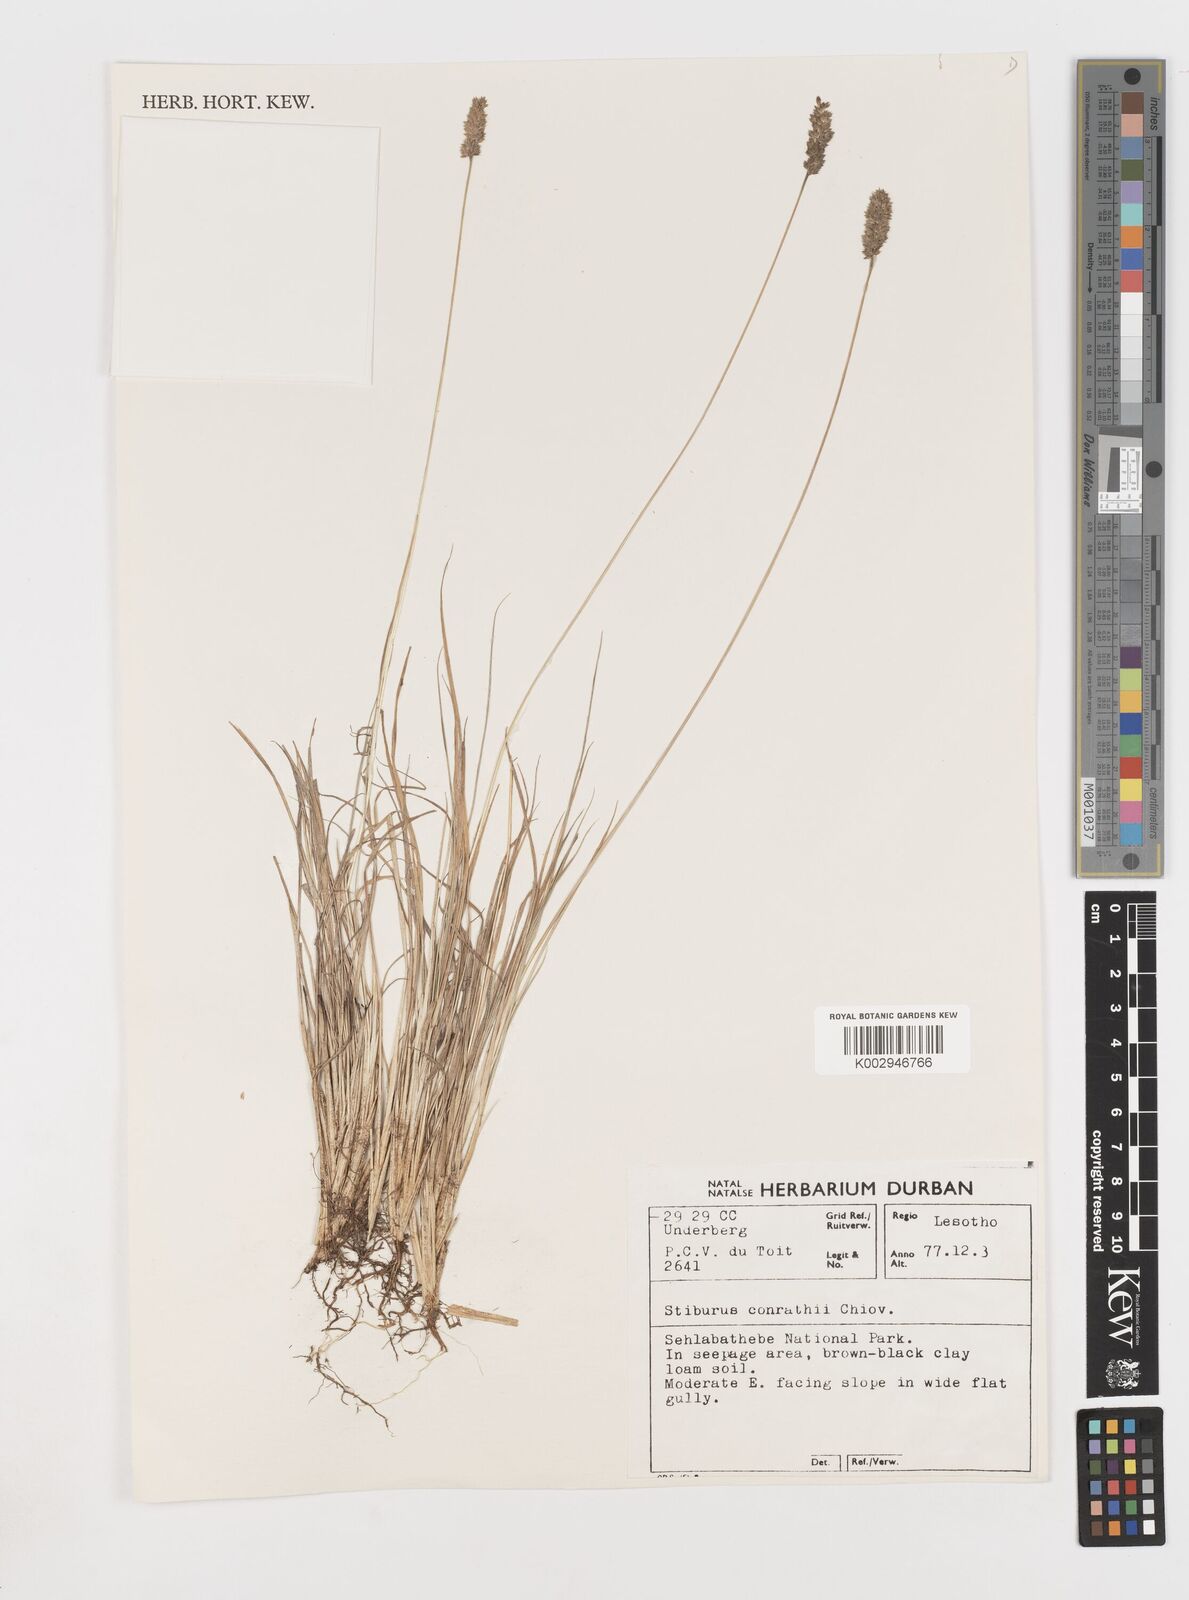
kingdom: Plantae
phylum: Tracheophyta
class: Liliopsida
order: Poales
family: Poaceae
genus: Stiburus
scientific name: Stiburus conrathii
